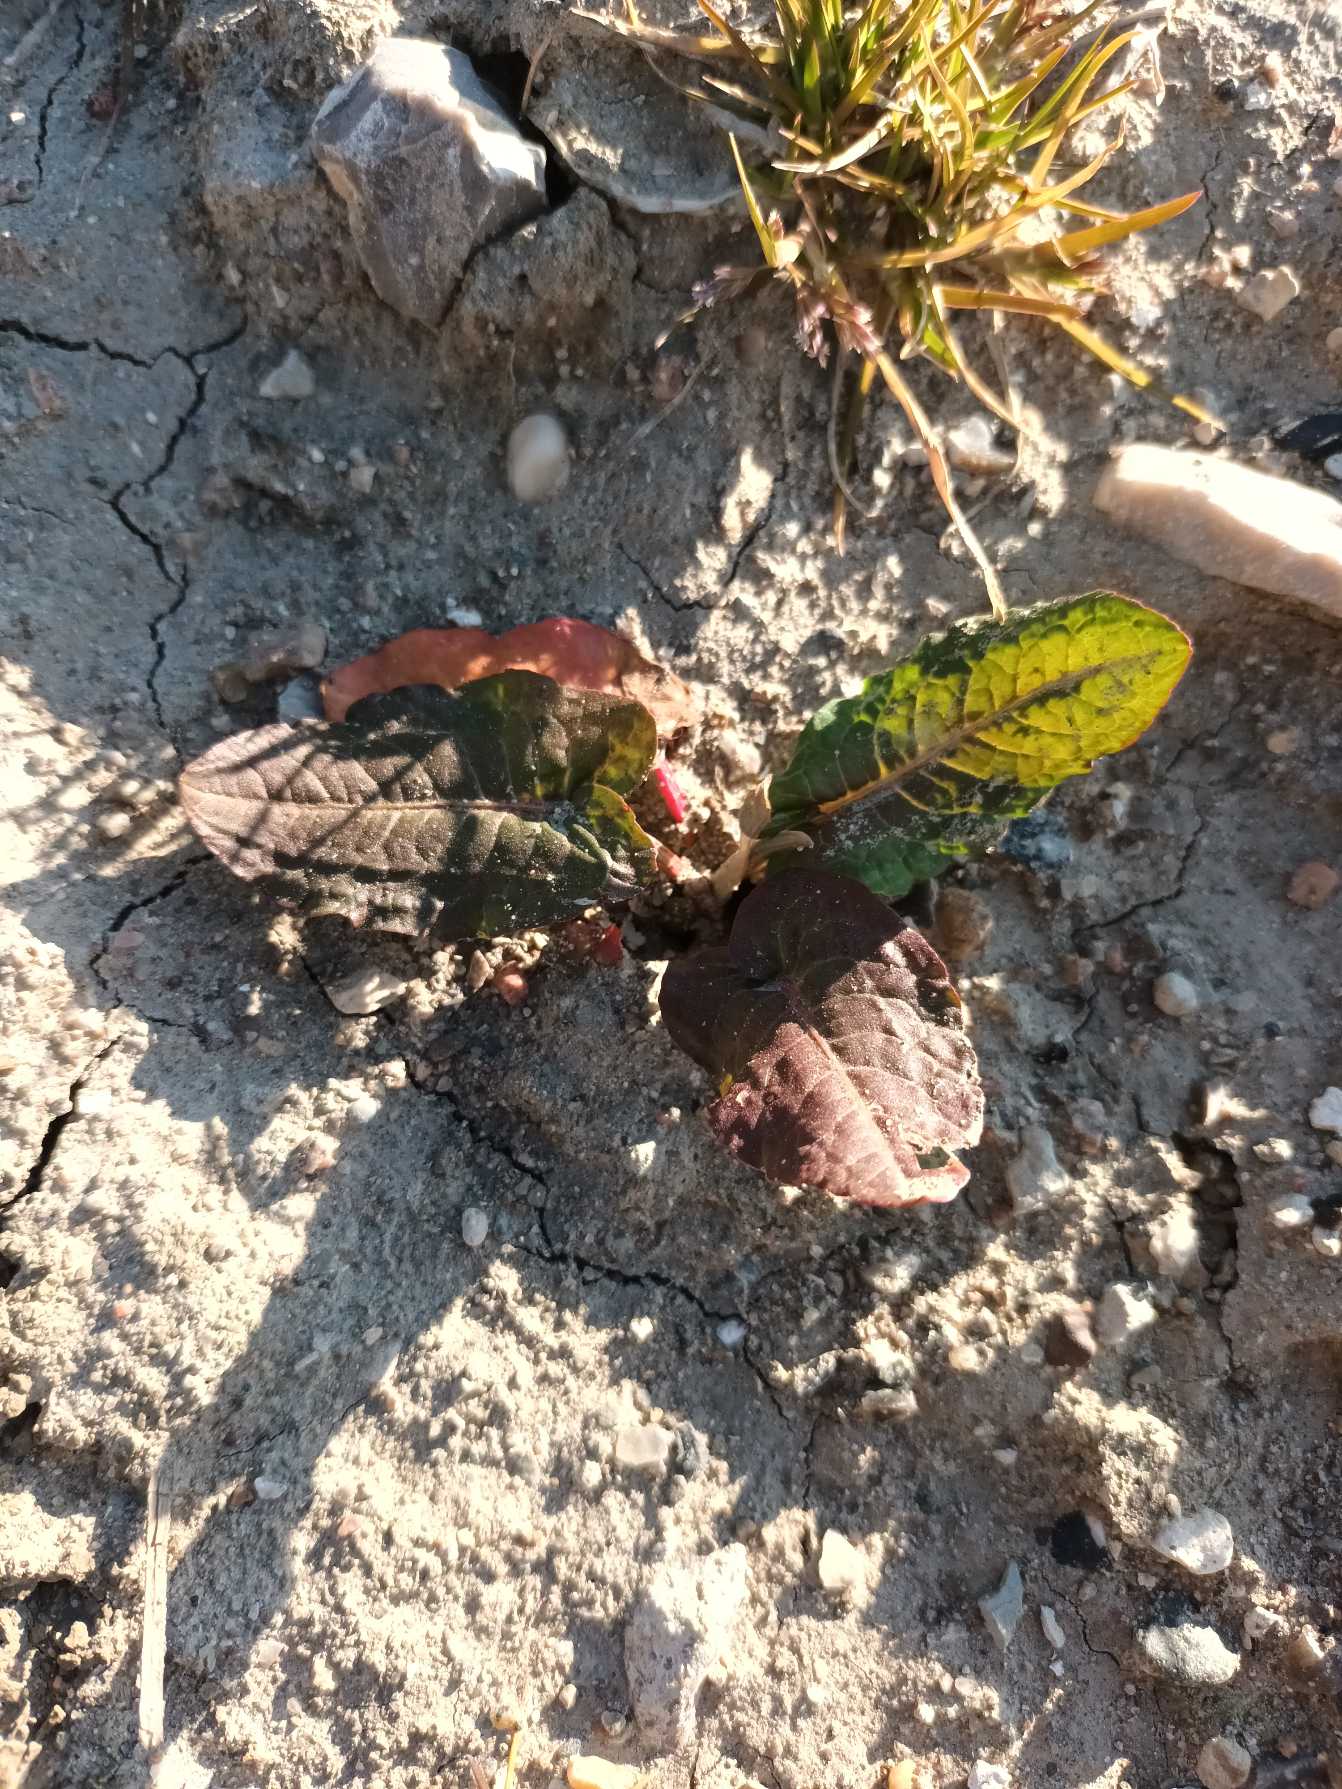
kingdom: Plantae
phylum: Tracheophyta
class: Magnoliopsida
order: Caryophyllales
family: Polygonaceae
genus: Rumex
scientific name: Rumex obtusifolius
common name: Butbladet skræppe
